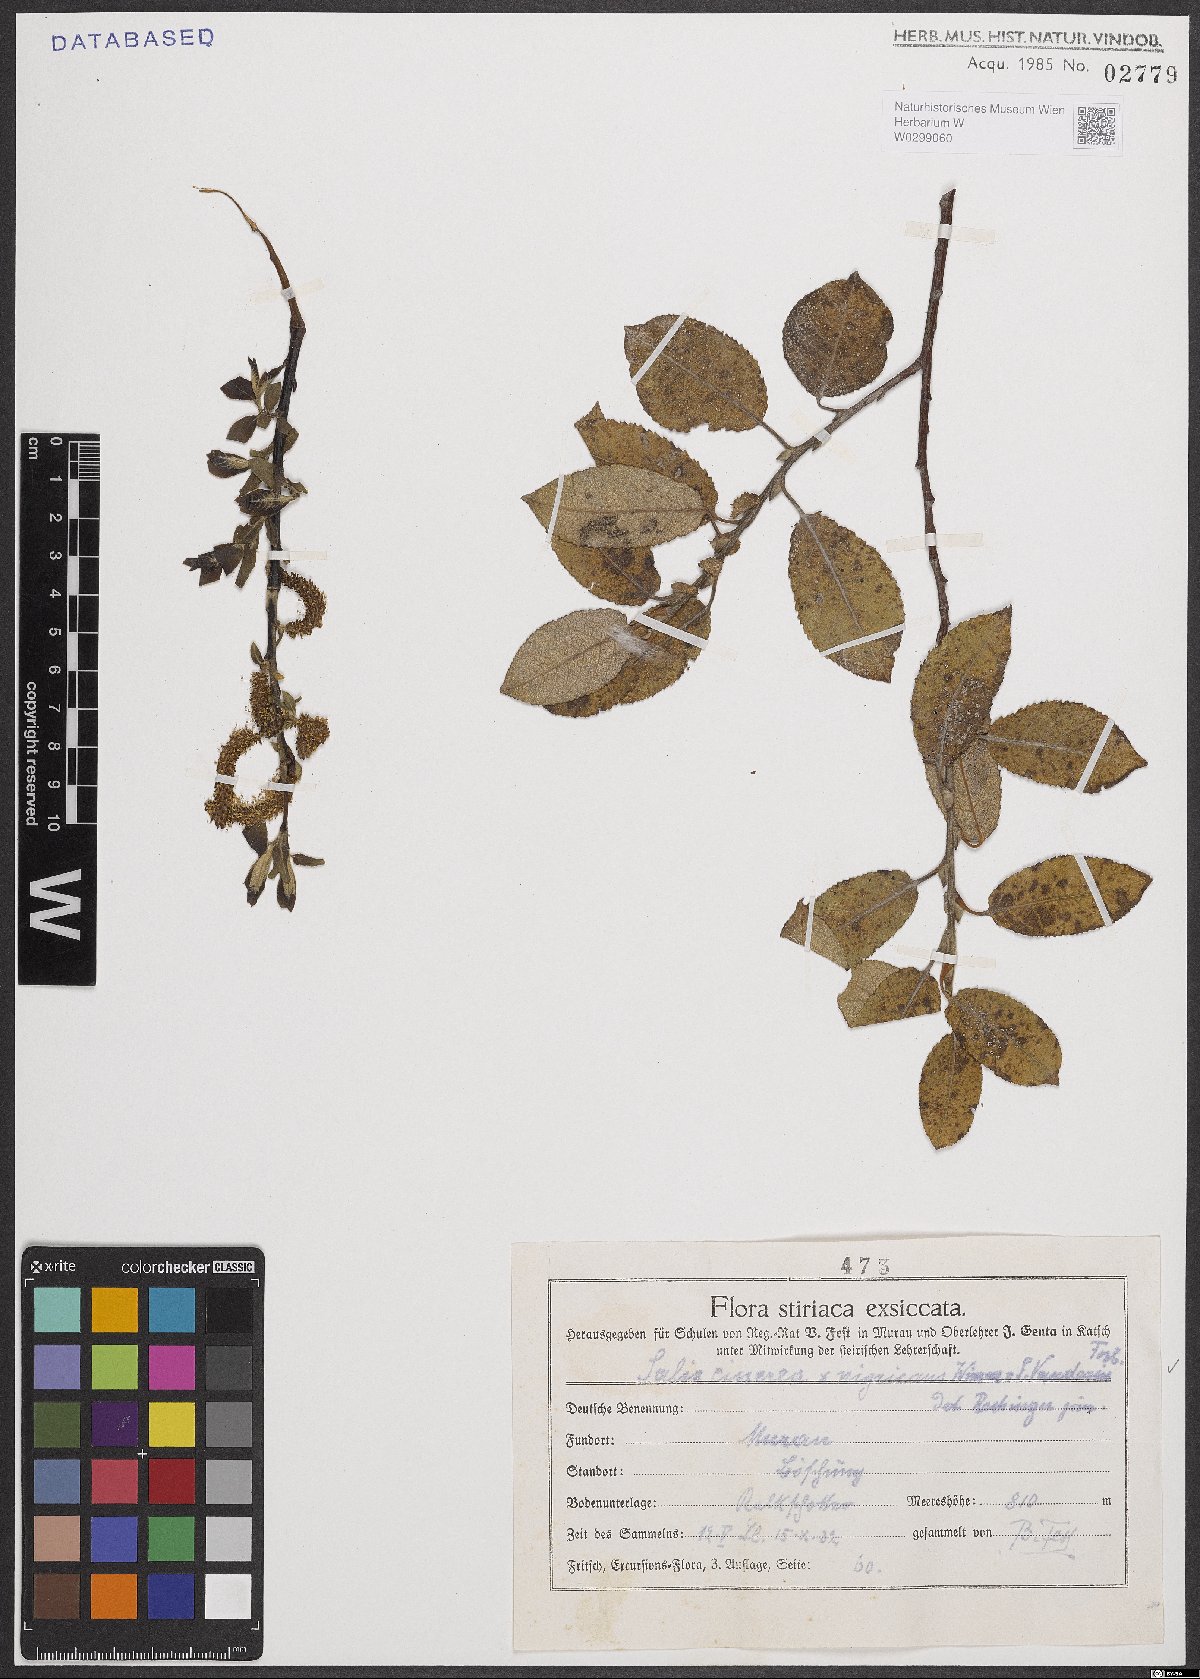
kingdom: Plantae
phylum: Tracheophyta
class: Magnoliopsida
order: Malpighiales
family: Salicaceae
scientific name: Salicaceae
